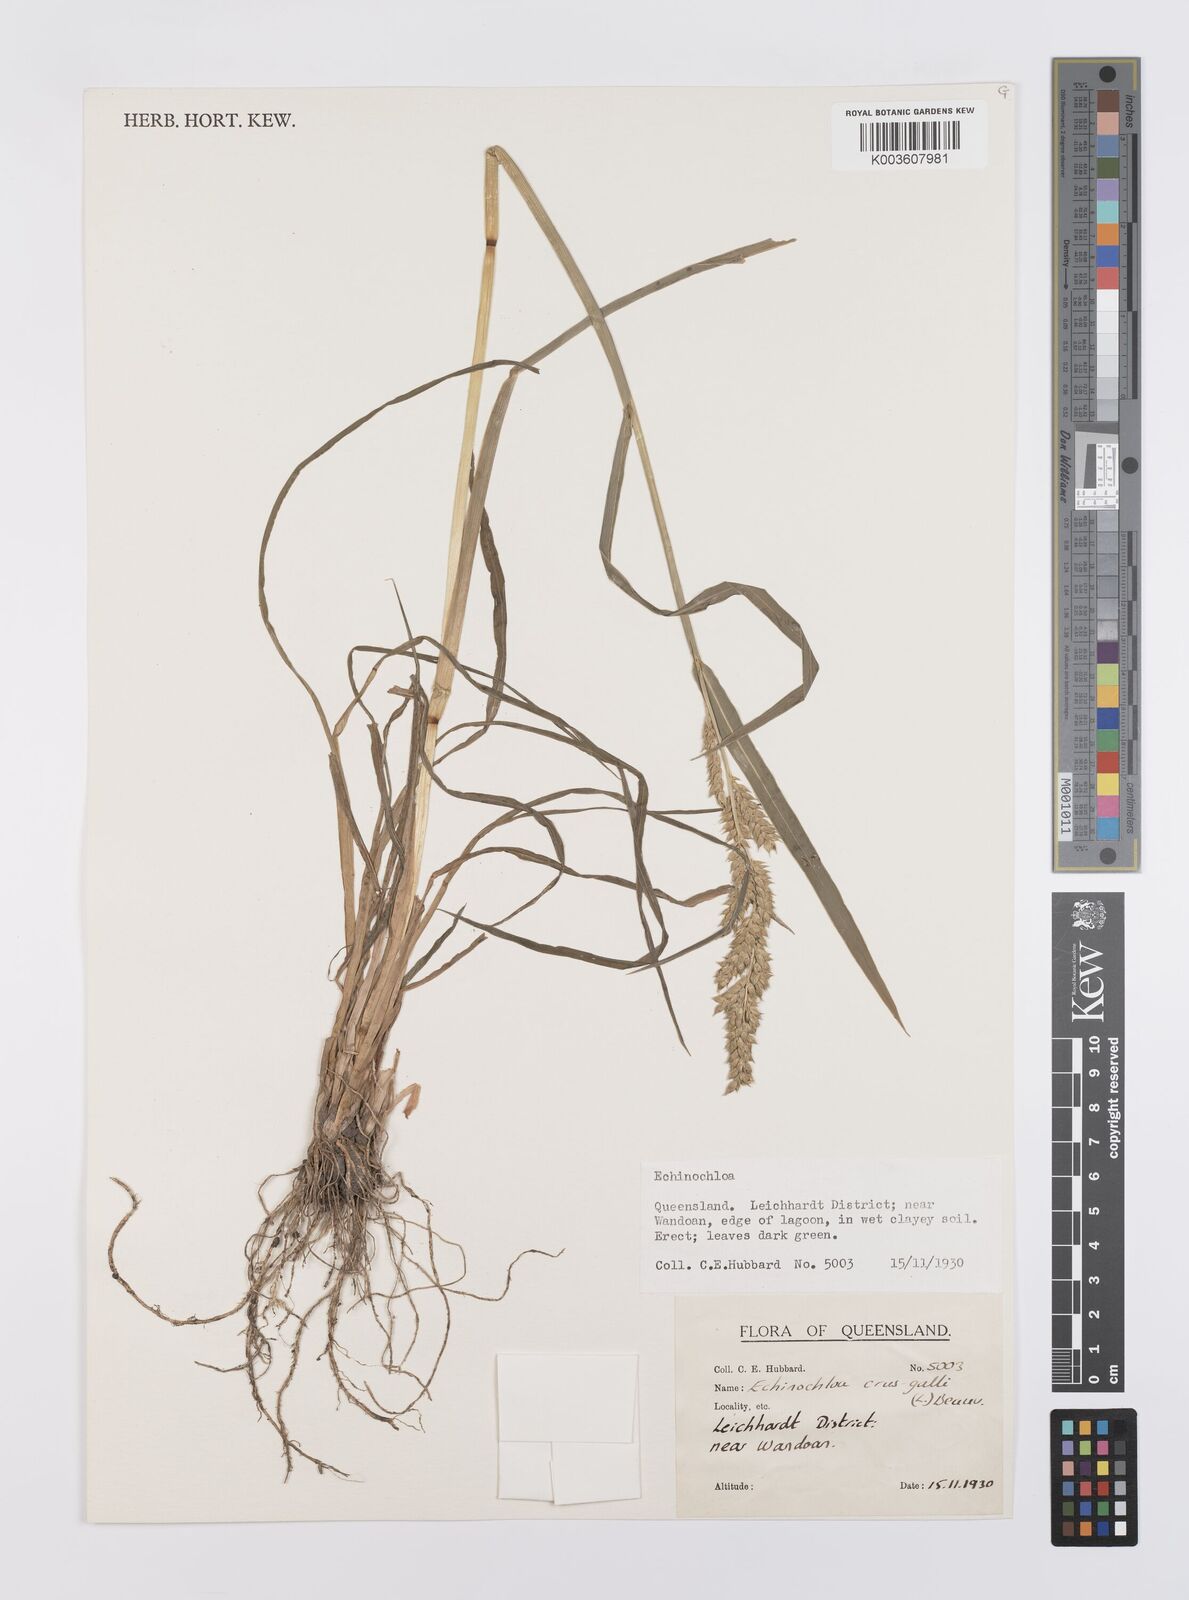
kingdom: Plantae
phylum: Tracheophyta
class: Liliopsida
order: Poales
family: Poaceae
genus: Echinochloa
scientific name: Echinochloa crus-galli
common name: Cockspur
